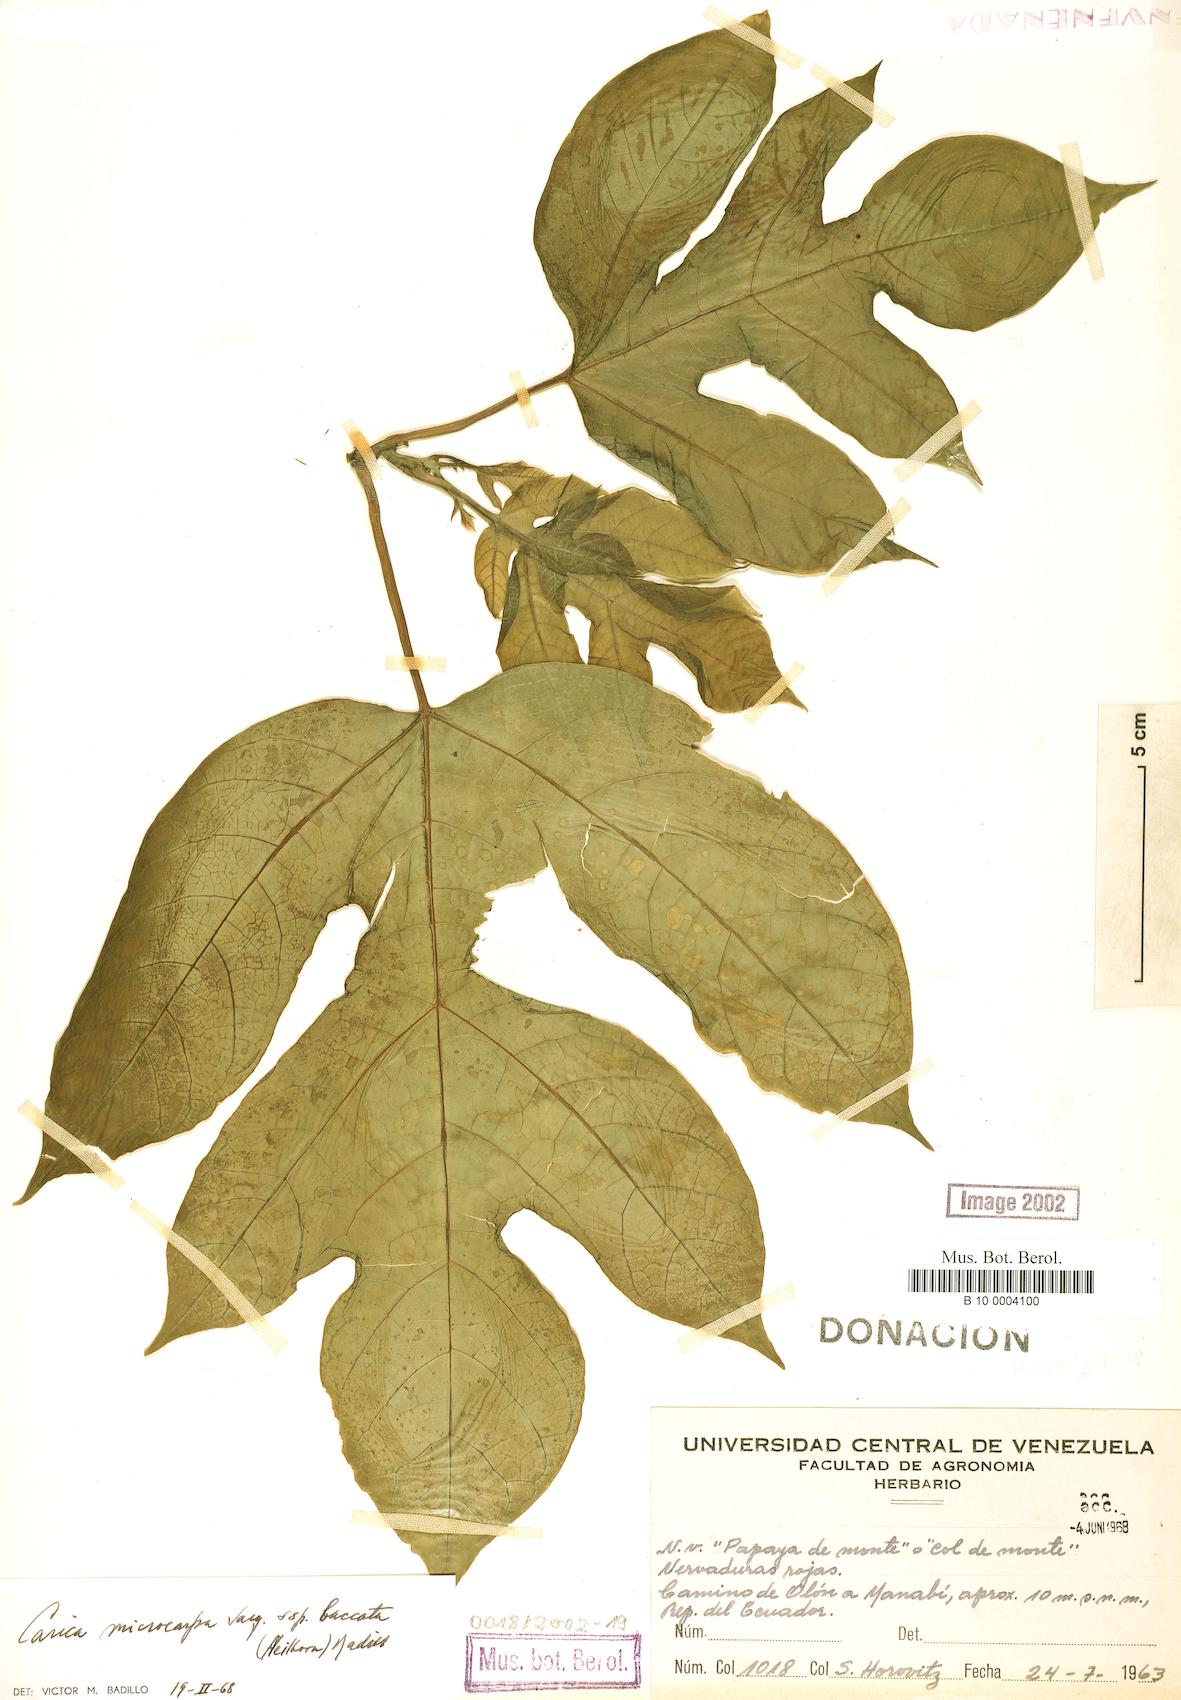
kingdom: Plantae
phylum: Tracheophyta
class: Magnoliopsida
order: Brassicales
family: Caricaceae
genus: Vasconcellea
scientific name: Vasconcellea microcarpa
